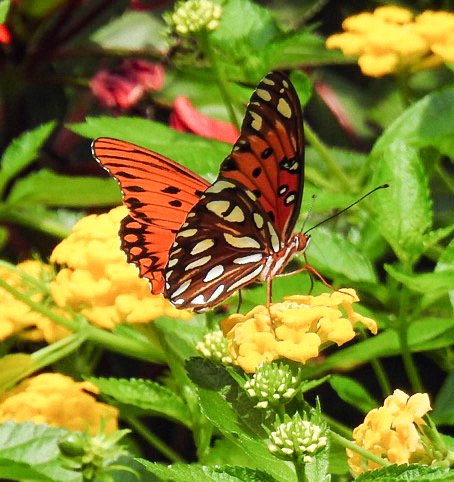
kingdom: Animalia
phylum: Arthropoda
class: Insecta
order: Lepidoptera
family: Nymphalidae
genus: Dione
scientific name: Dione vanillae
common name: Gulf Fritillary
